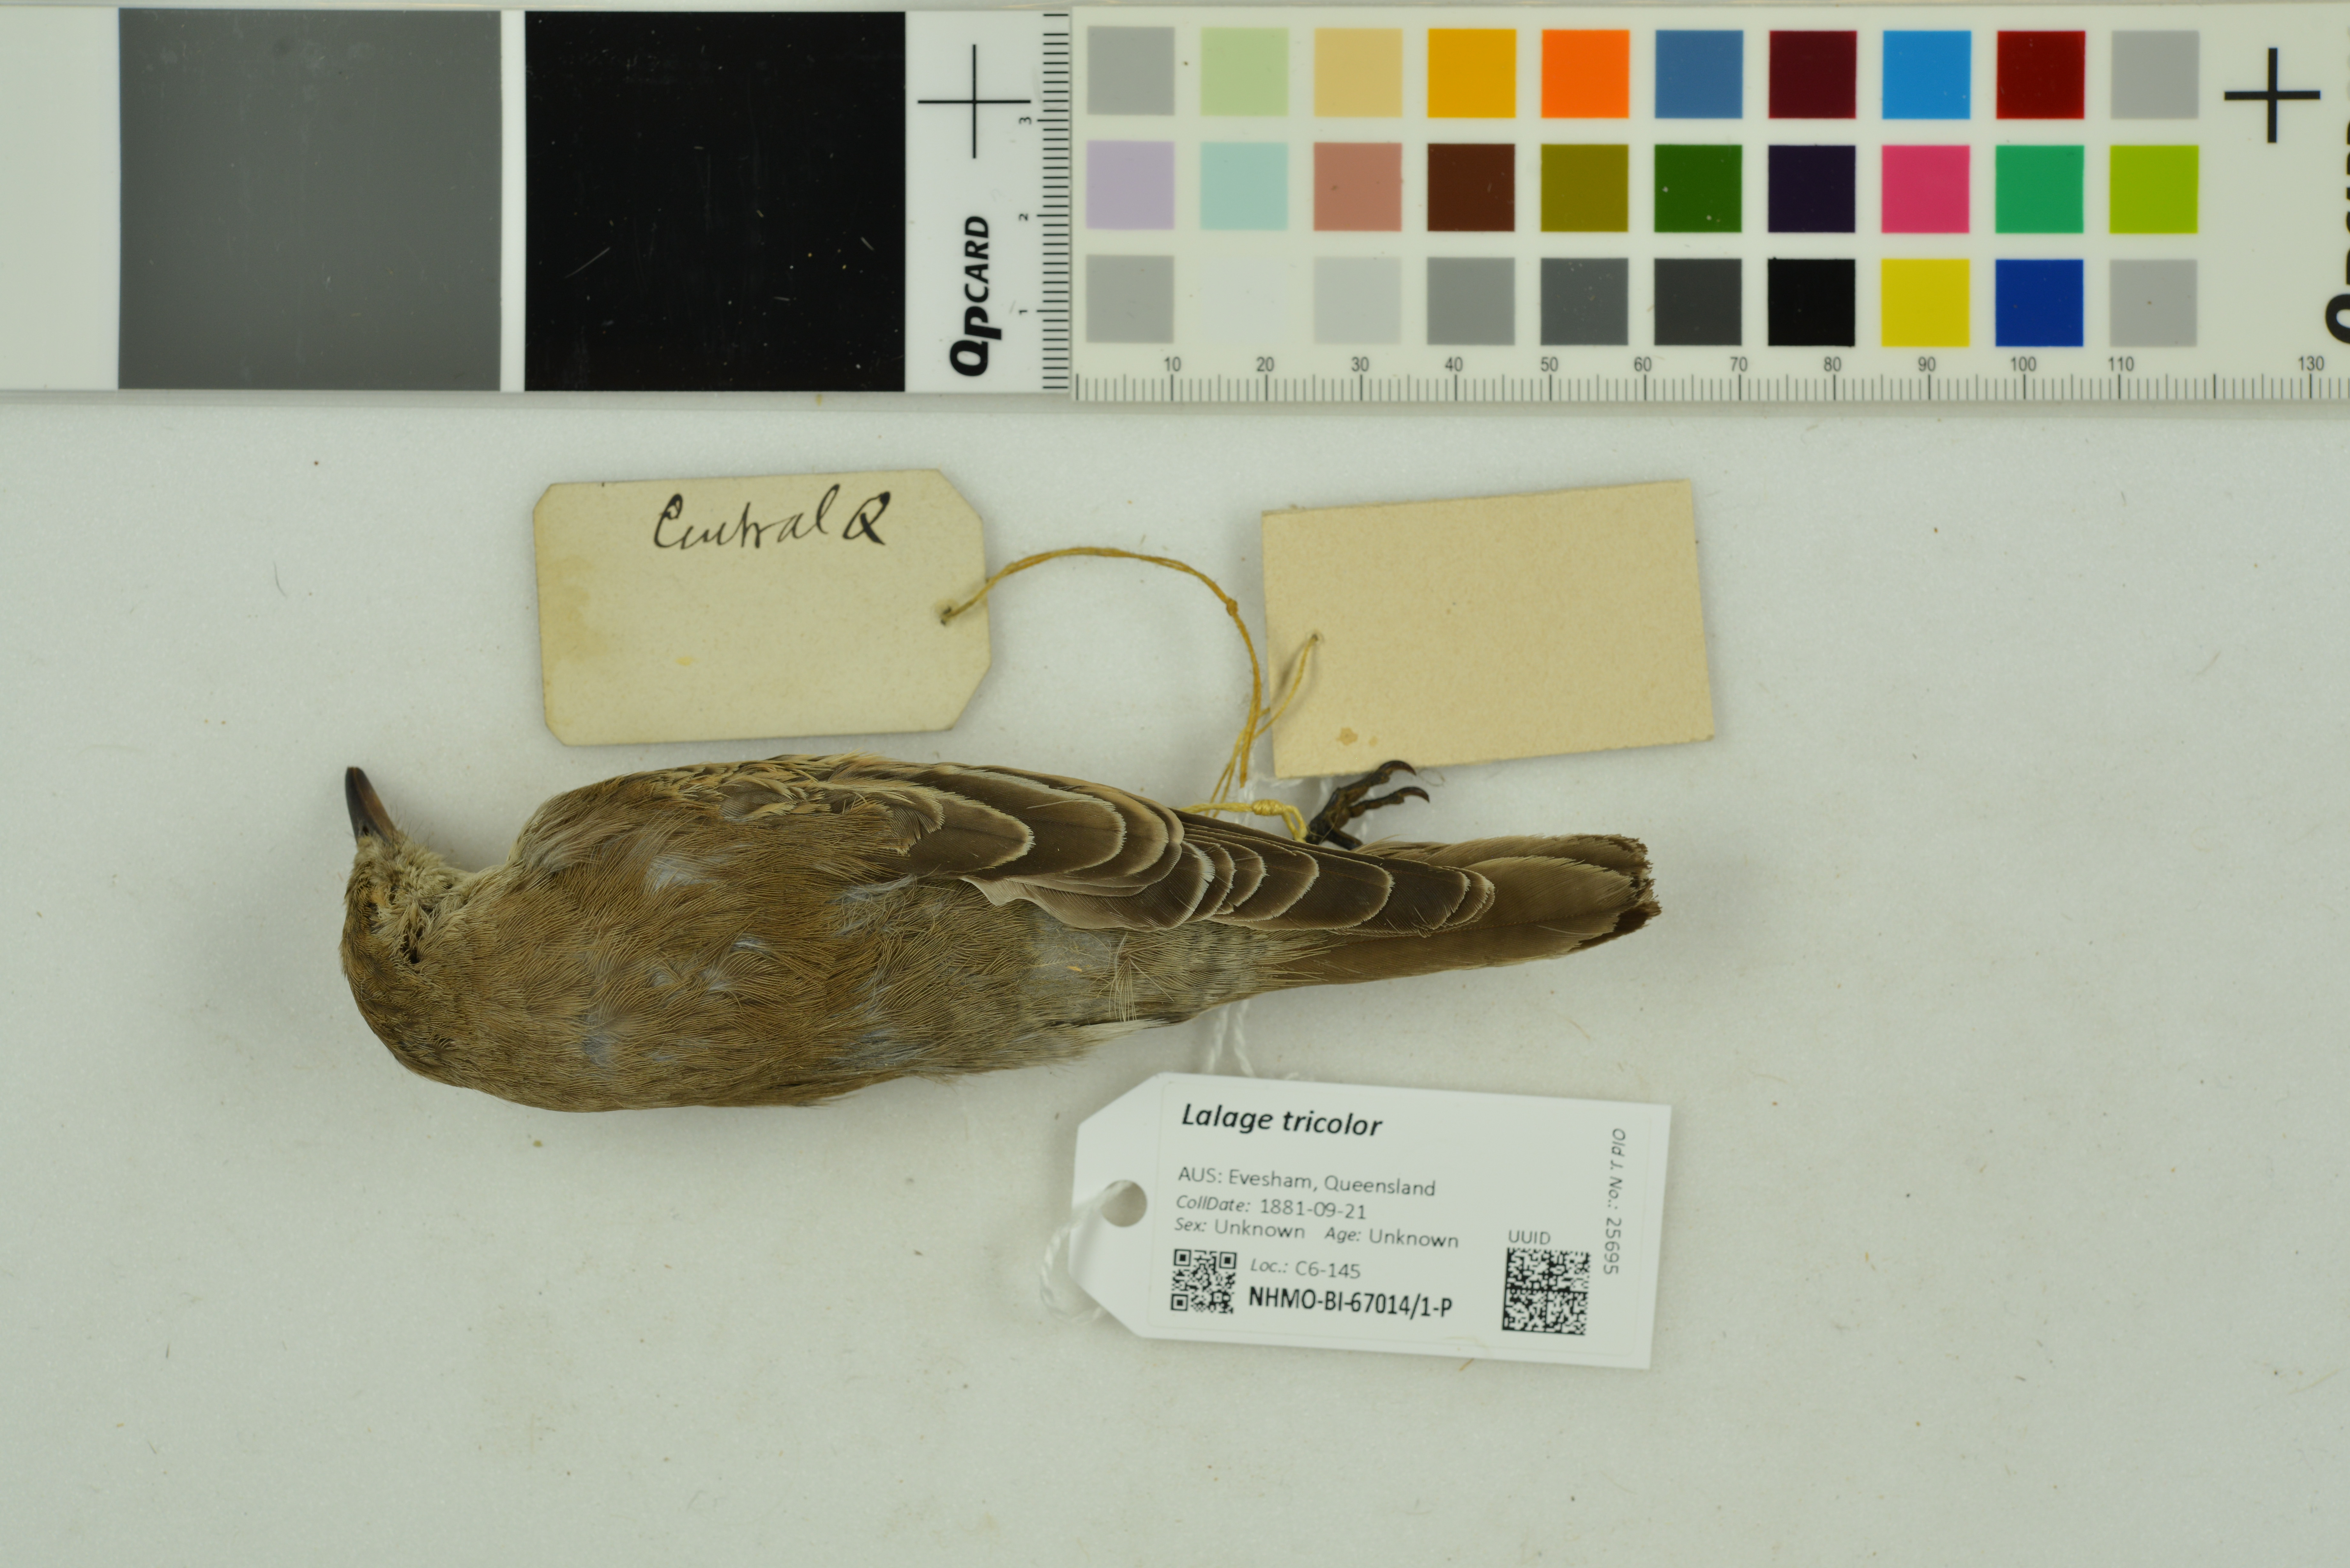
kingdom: Animalia
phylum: Chordata
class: Aves
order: Passeriformes
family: Campephagidae
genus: Lalage
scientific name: Lalage tricolor
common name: White-winged triller
